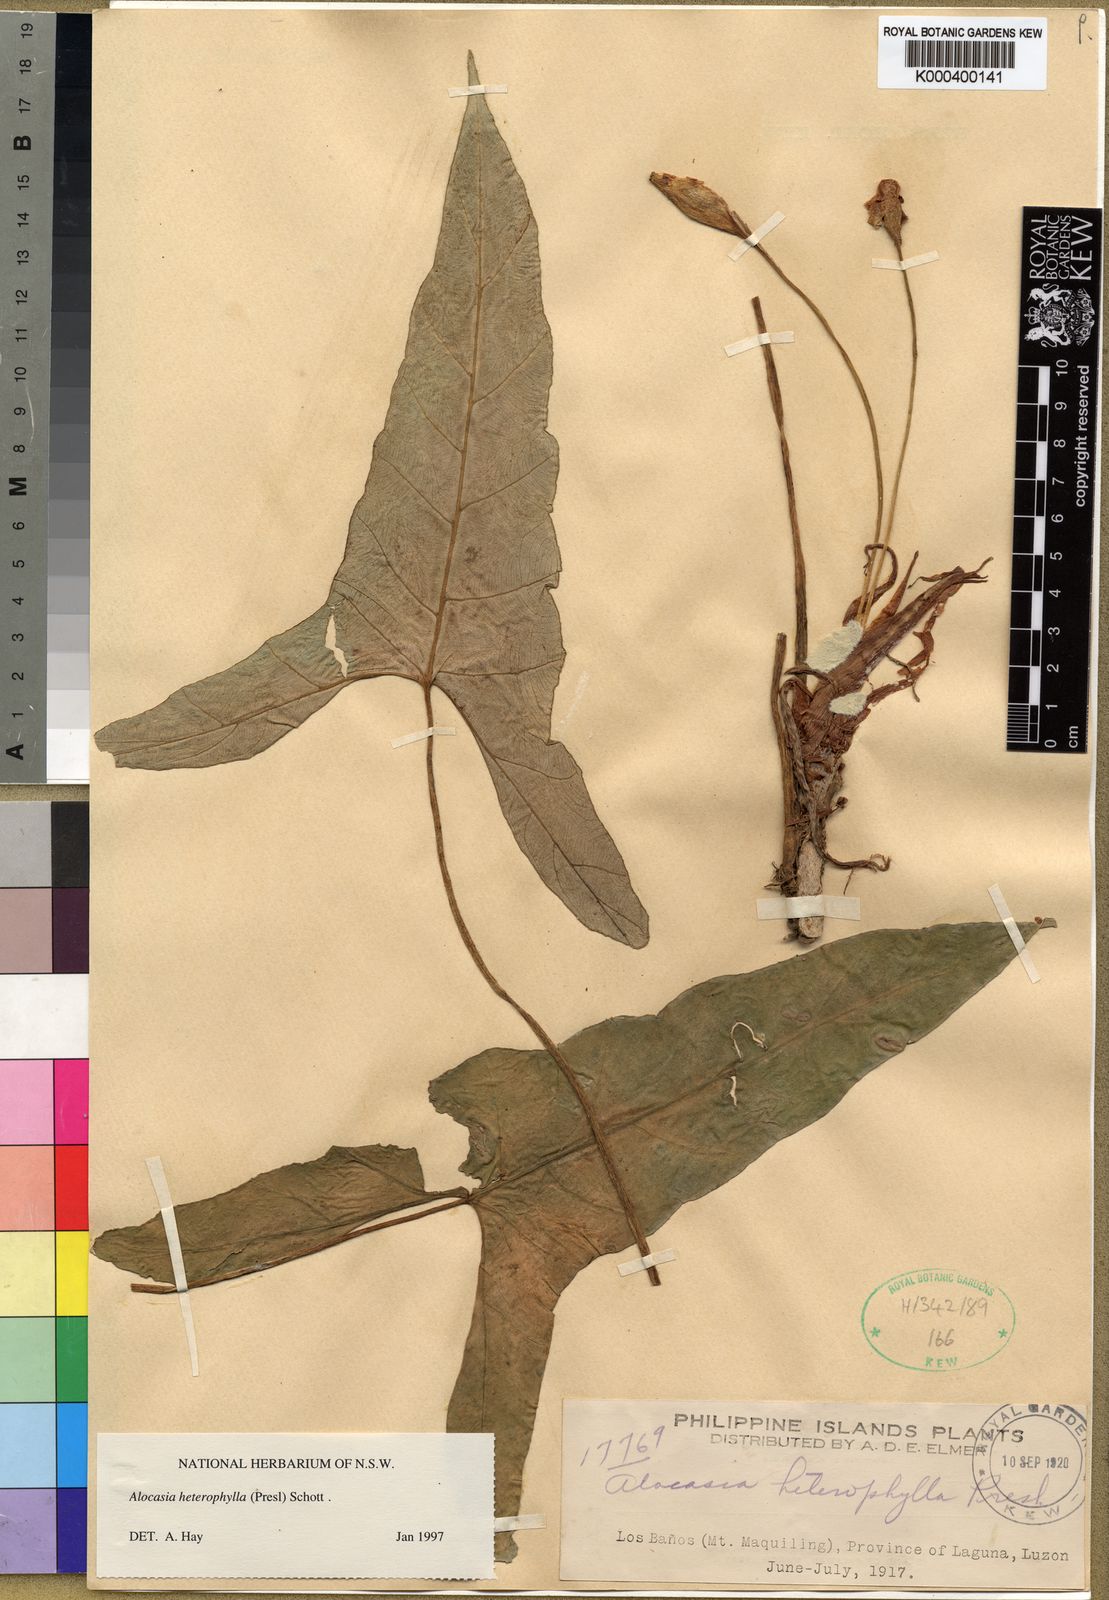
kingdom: Plantae
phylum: Tracheophyta
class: Liliopsida
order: Alismatales
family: Araceae
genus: Alocasia
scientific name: Alocasia heterophylla
